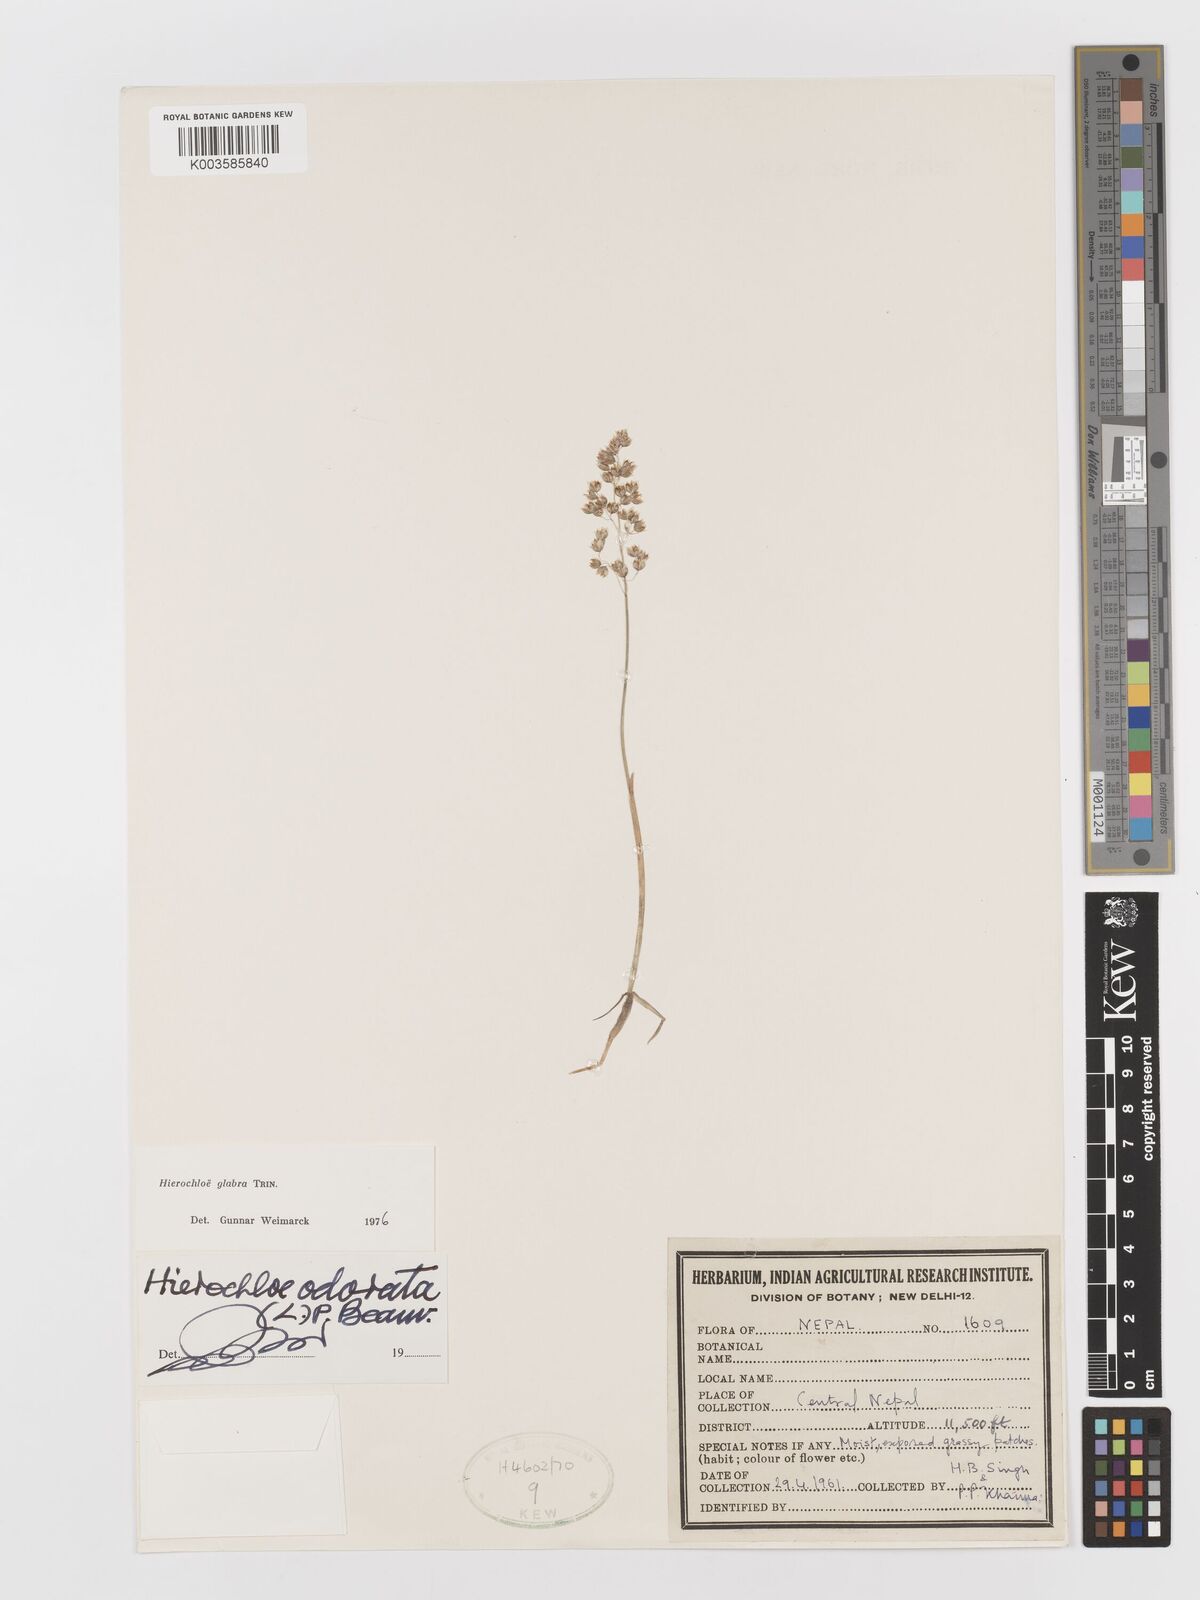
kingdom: Plantae
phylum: Tracheophyta
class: Liliopsida
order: Poales
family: Poaceae
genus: Anthoxanthum
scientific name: Anthoxanthum glabrum
